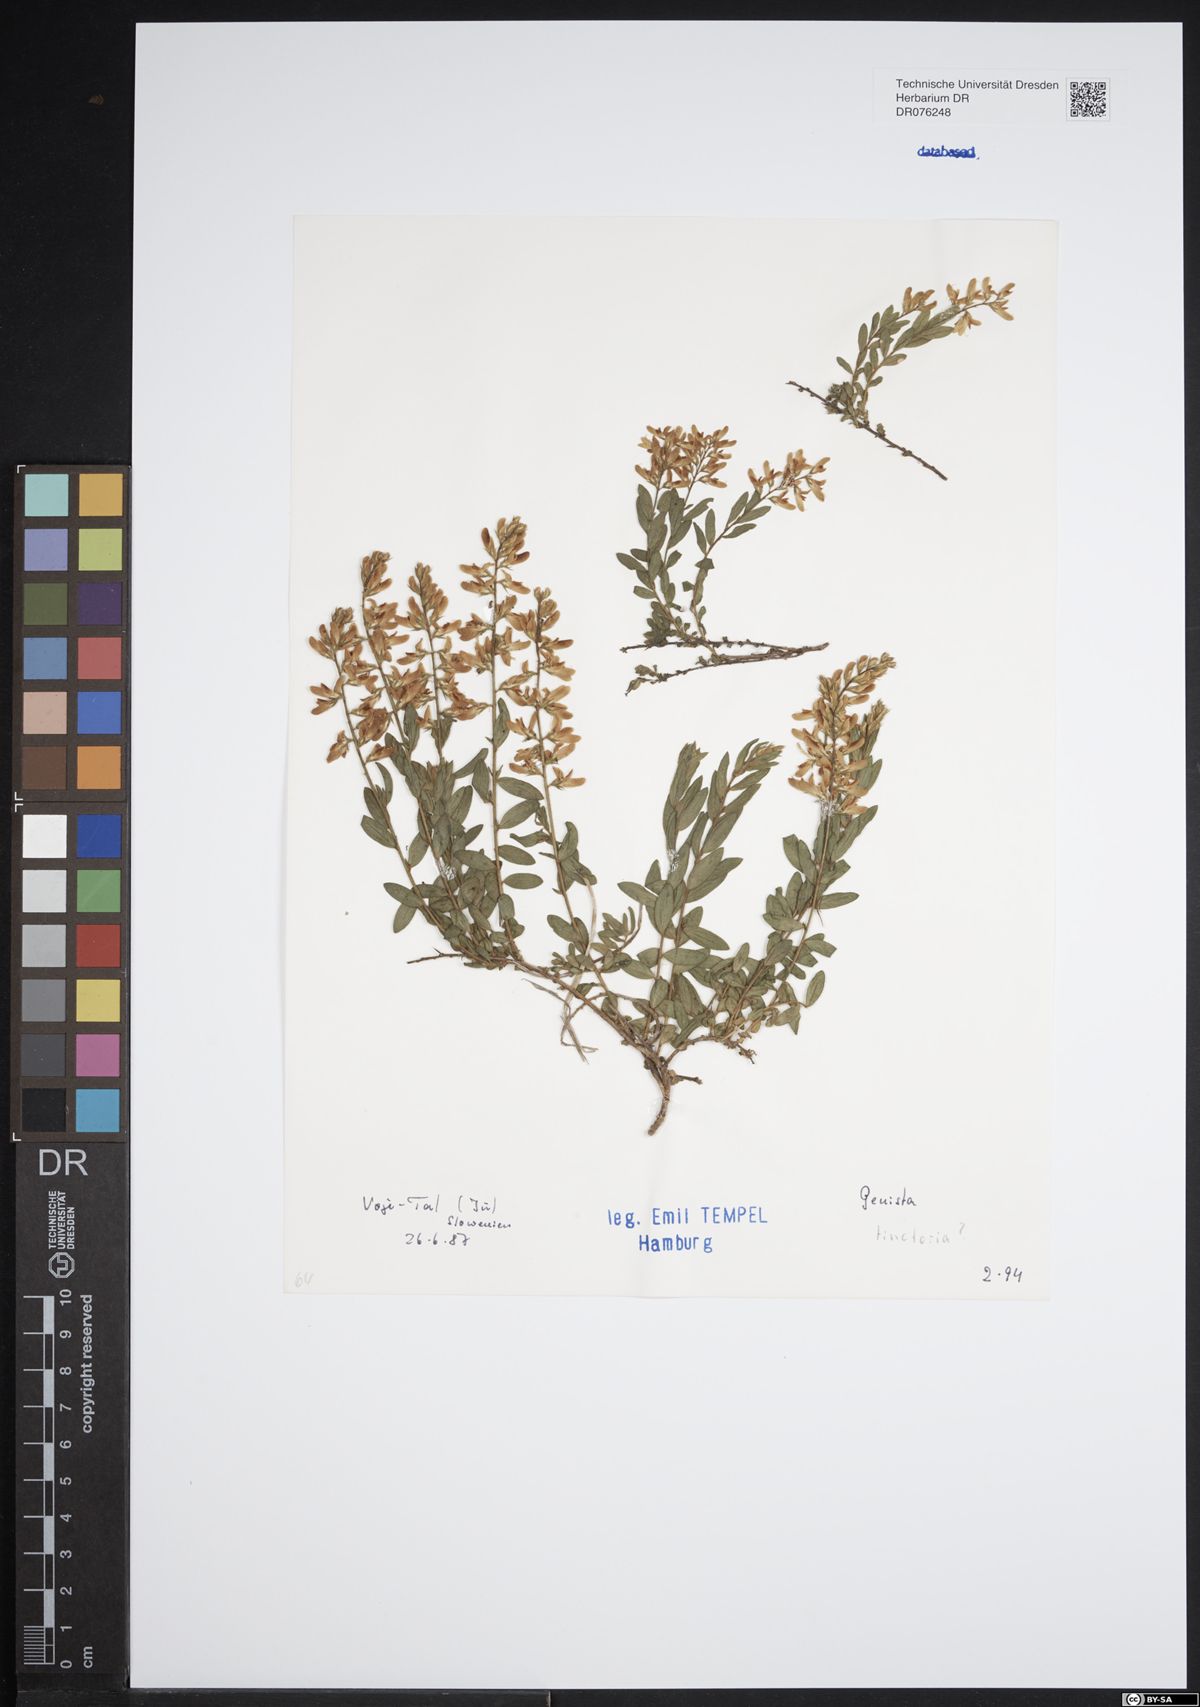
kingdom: Plantae
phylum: Tracheophyta
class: Magnoliopsida
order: Fabales
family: Fabaceae
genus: Genista
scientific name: Genista tinctoria
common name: Dyer's greenweed
